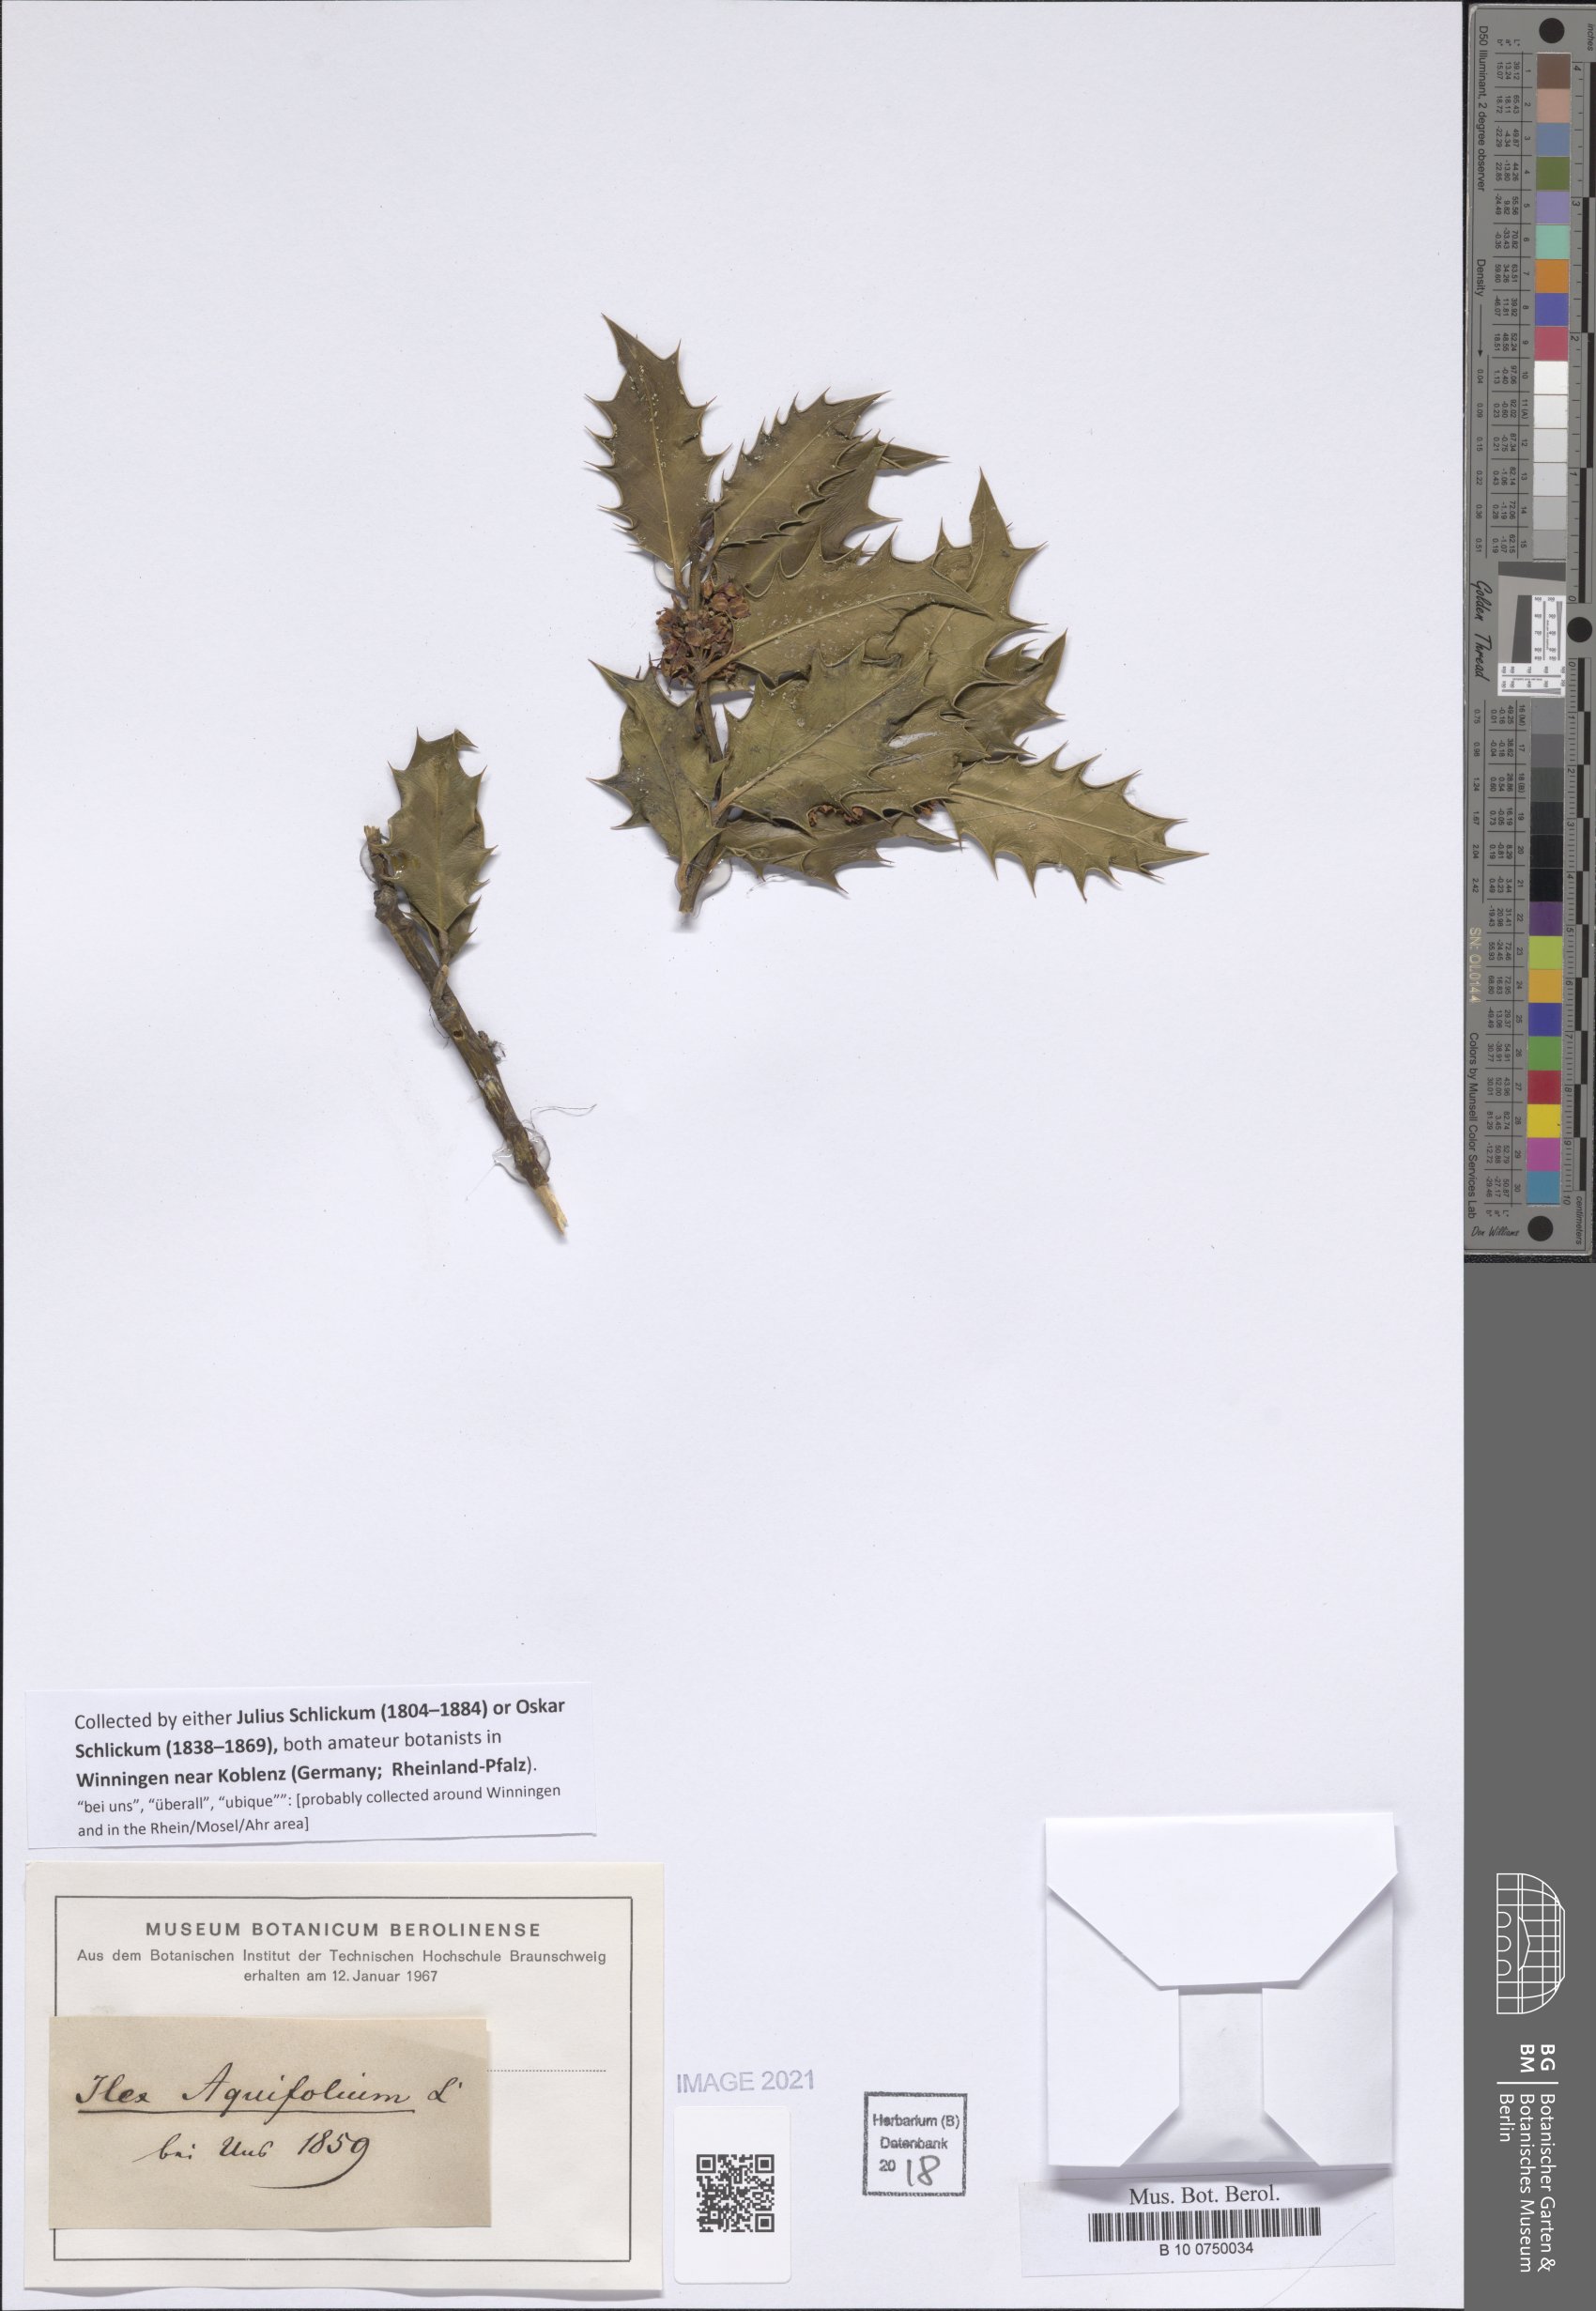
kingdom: Plantae
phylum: Tracheophyta
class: Magnoliopsida
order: Aquifoliales
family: Aquifoliaceae
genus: Ilex
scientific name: Ilex aquifolium
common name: English holly
